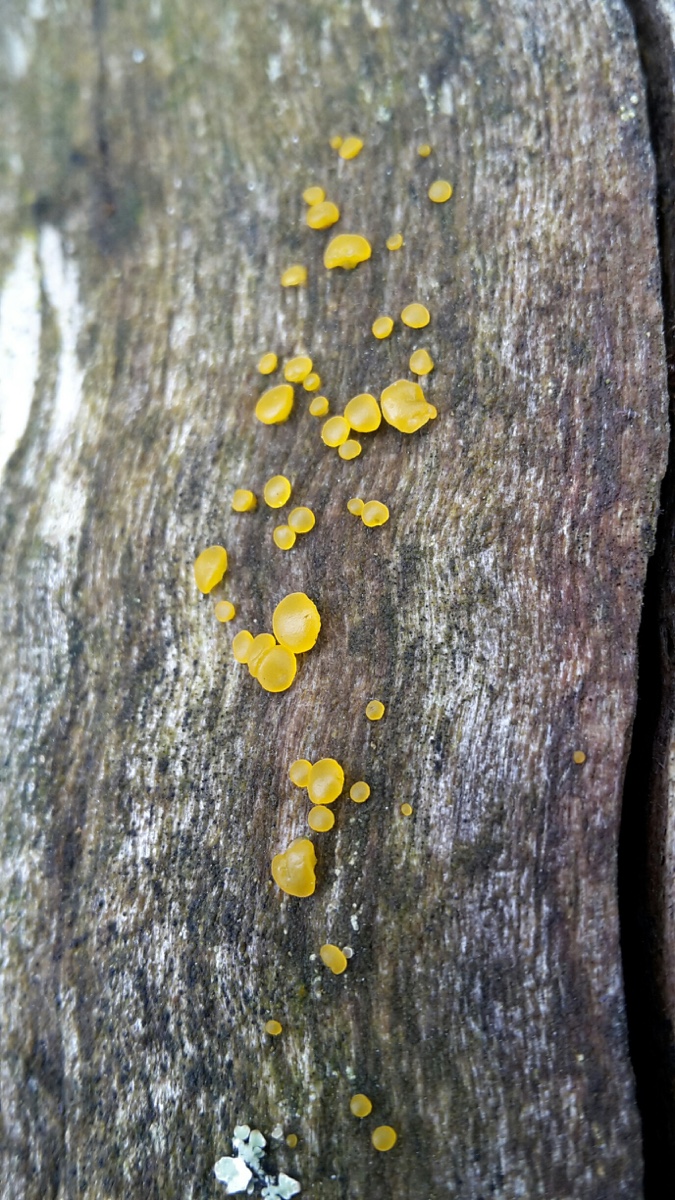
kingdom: Fungi
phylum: Basidiomycota
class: Dacrymycetes
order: Dacrymycetales
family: Dacrymycetaceae
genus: Dacrymyces
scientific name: Dacrymyces capitatus
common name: stilket tåresvamp
